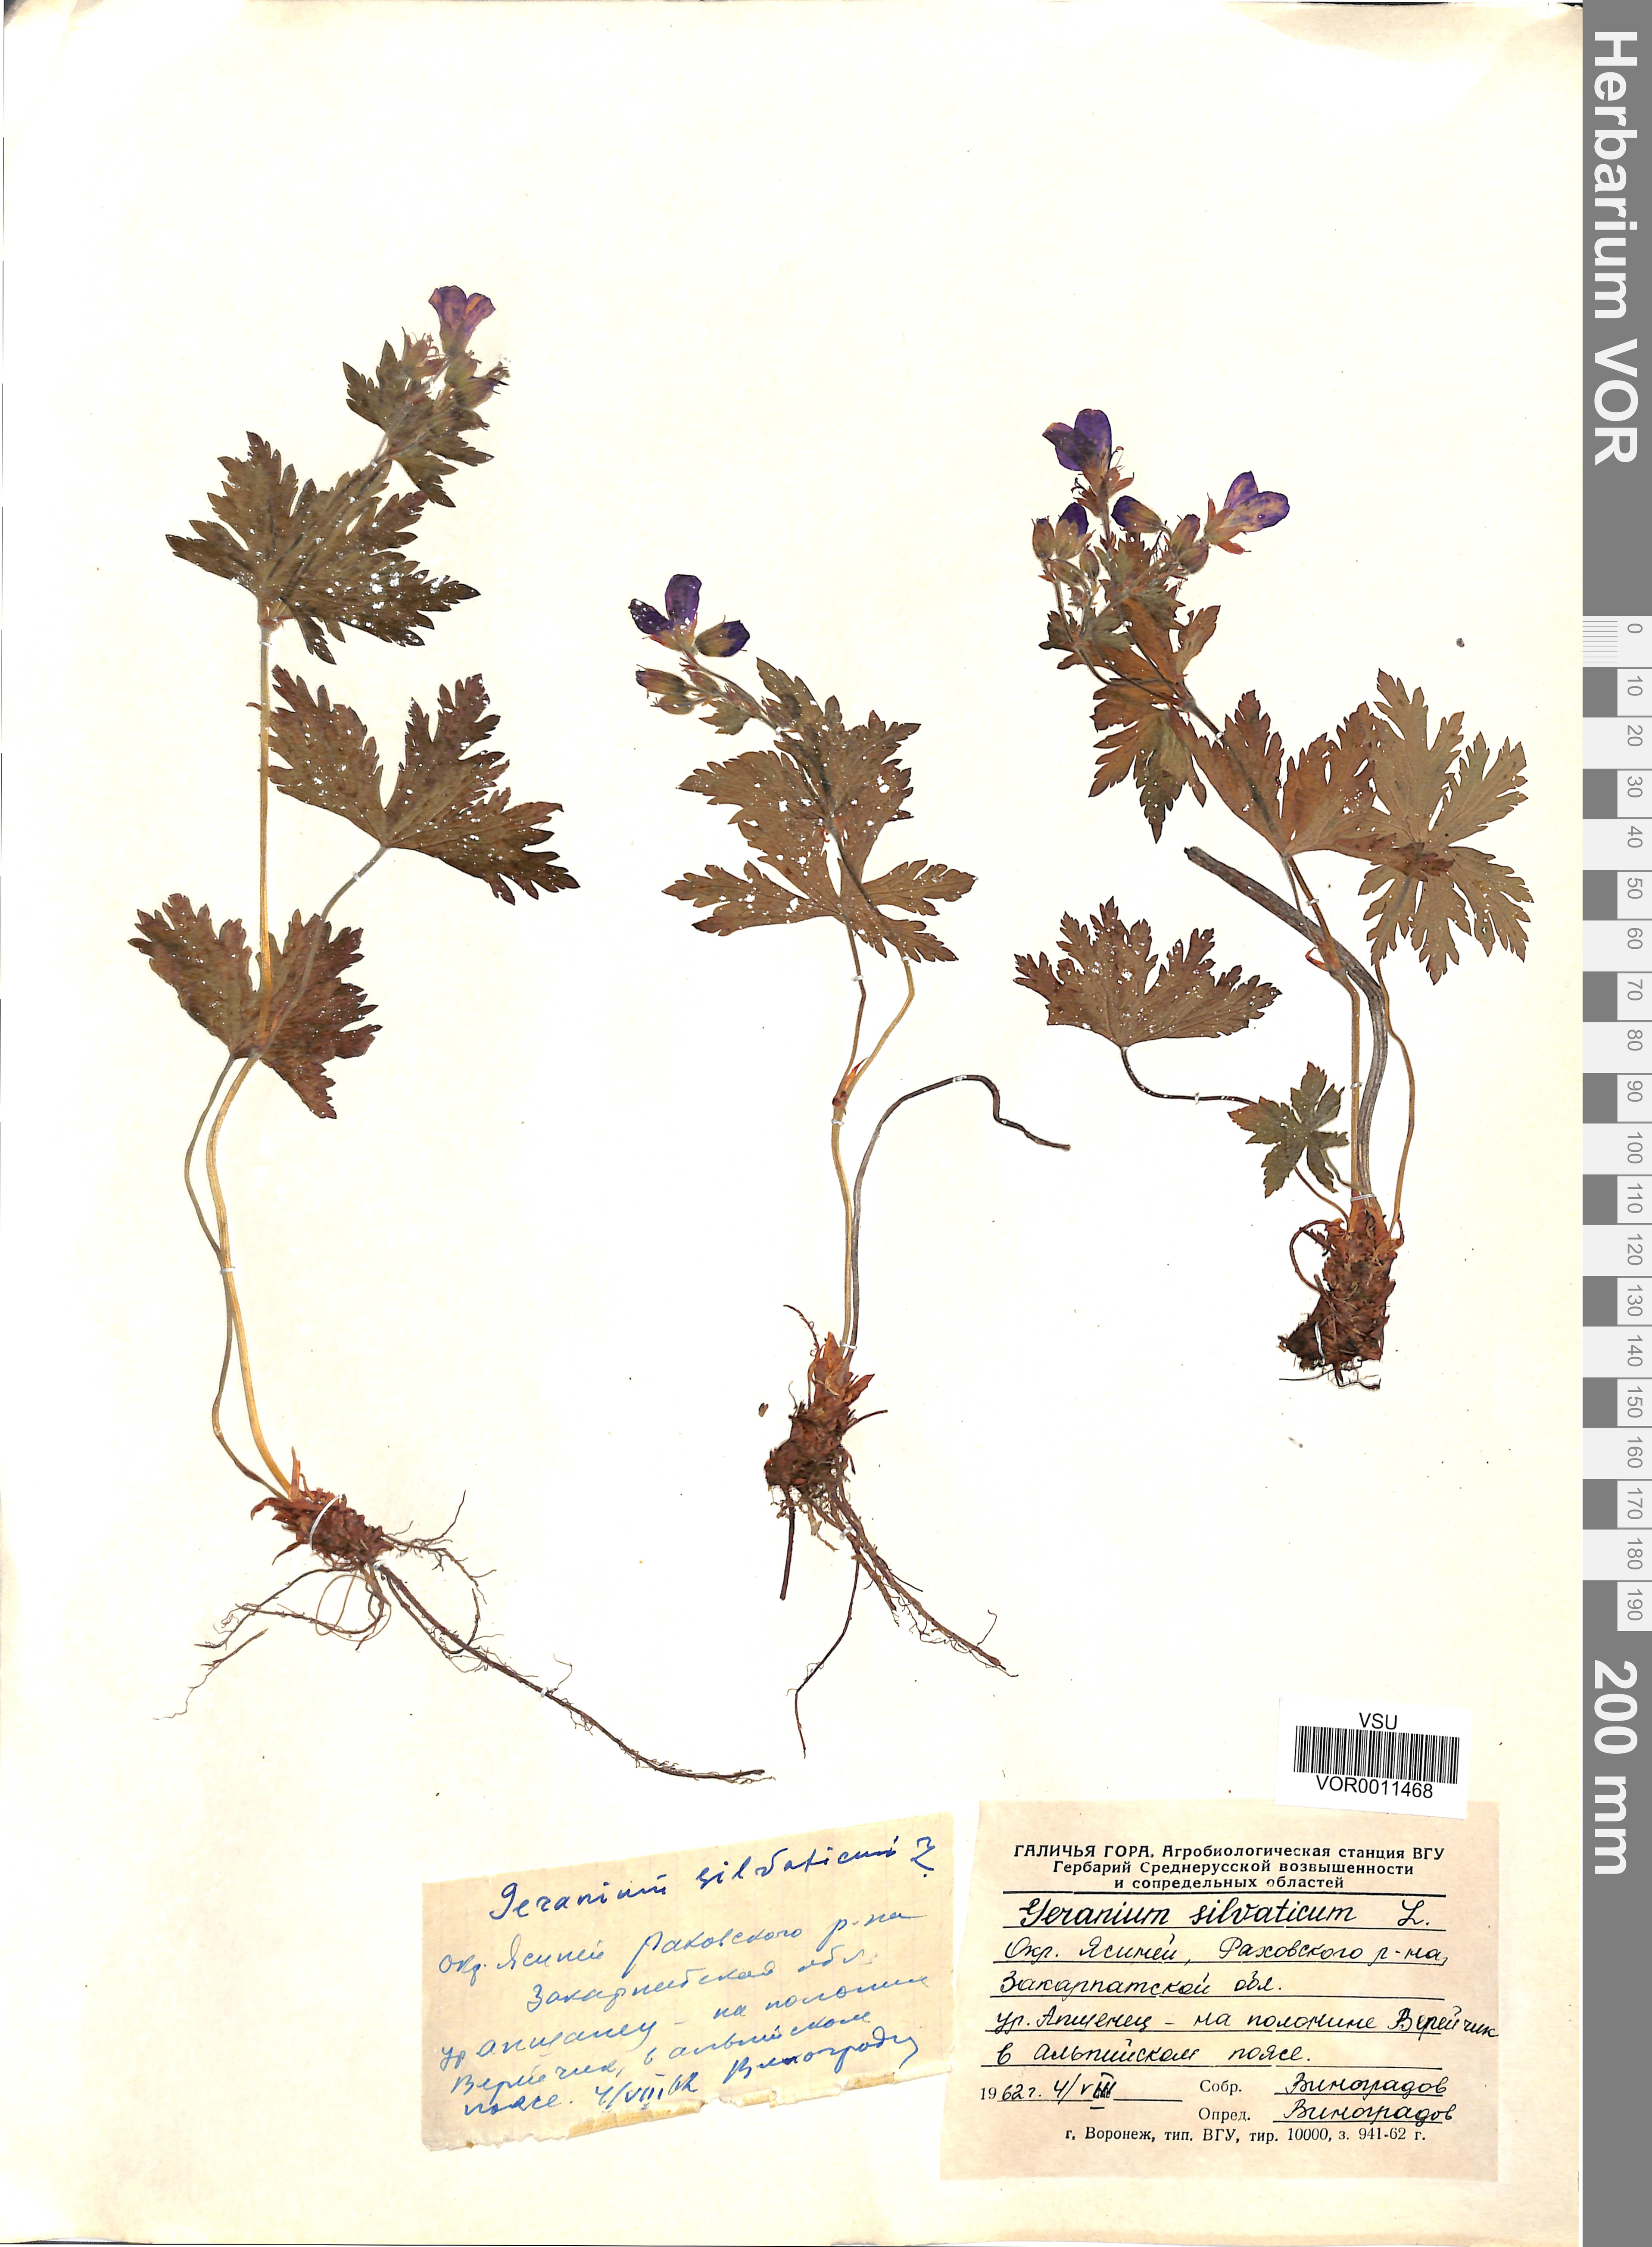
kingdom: Plantae
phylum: Tracheophyta
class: Magnoliopsida
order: Geraniales
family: Geraniaceae
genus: Geranium
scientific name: Geranium sibiricum
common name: Siberian crane's-bill
